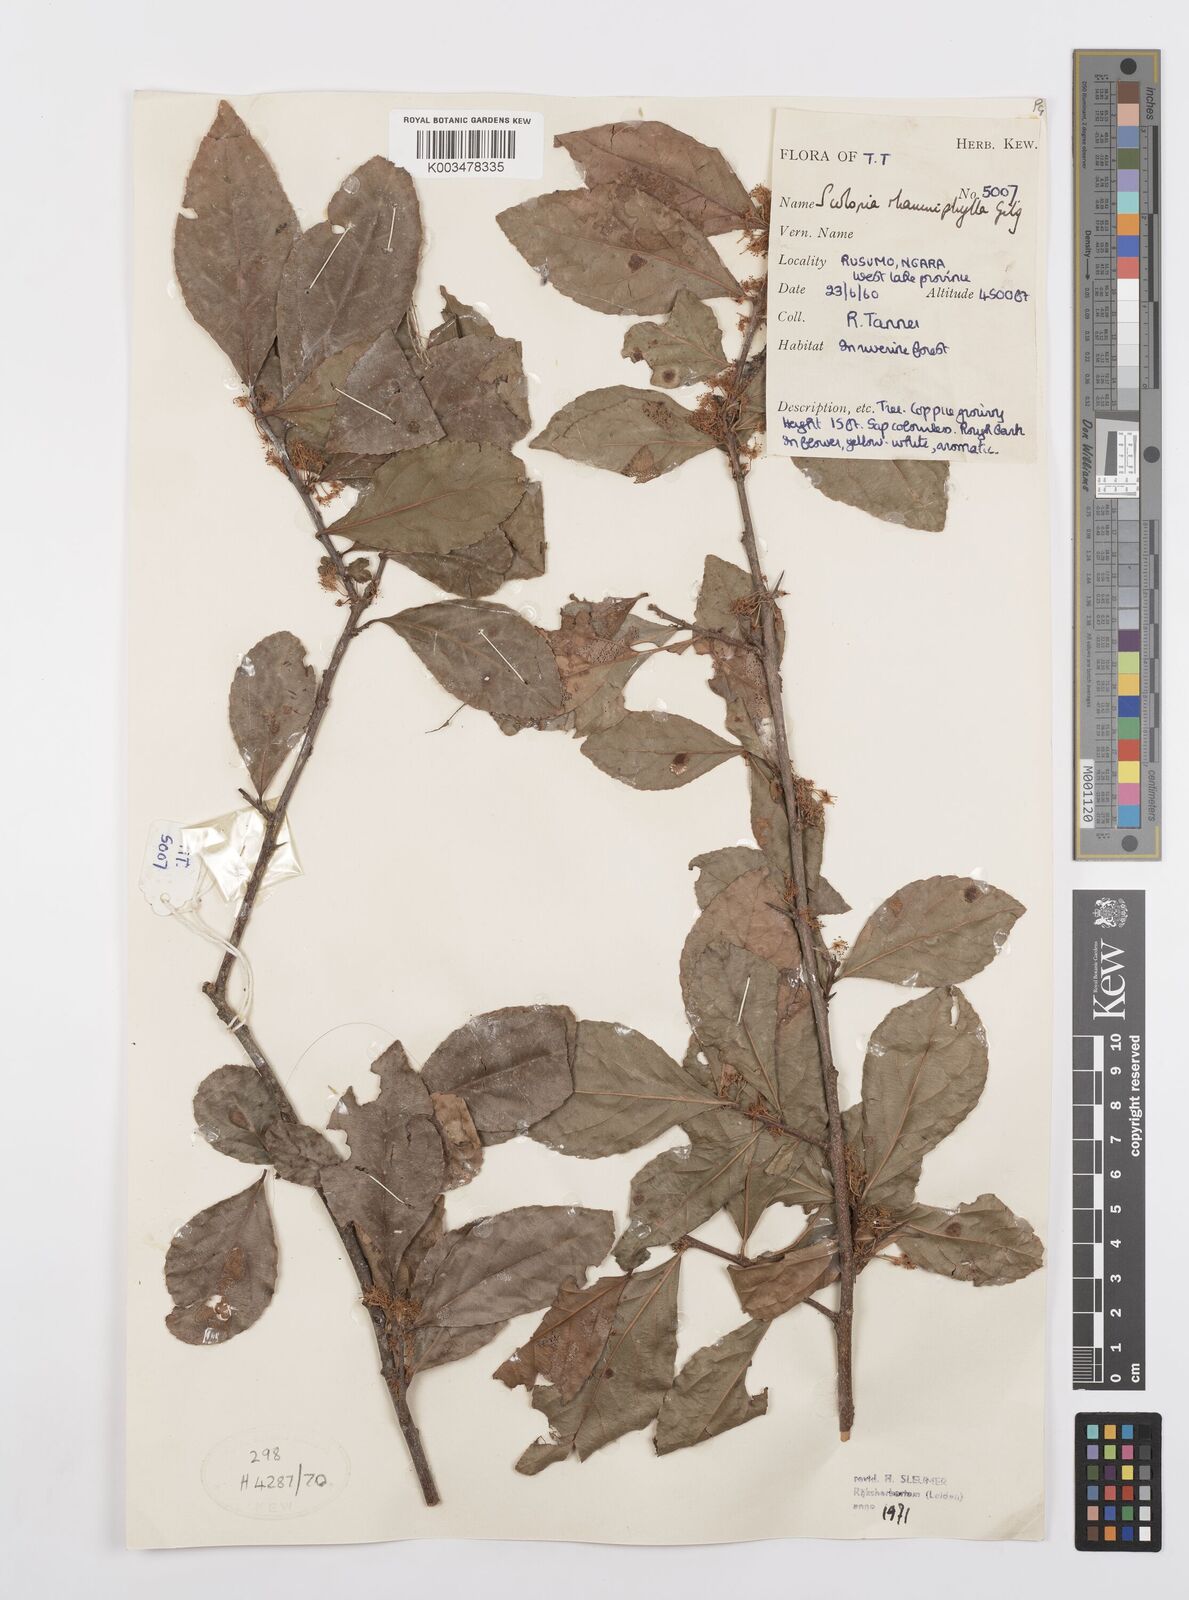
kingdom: Plantae
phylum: Tracheophyta
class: Magnoliopsida
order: Malpighiales
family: Salicaceae
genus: Scolopia
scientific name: Scolopia rhamniphylla
